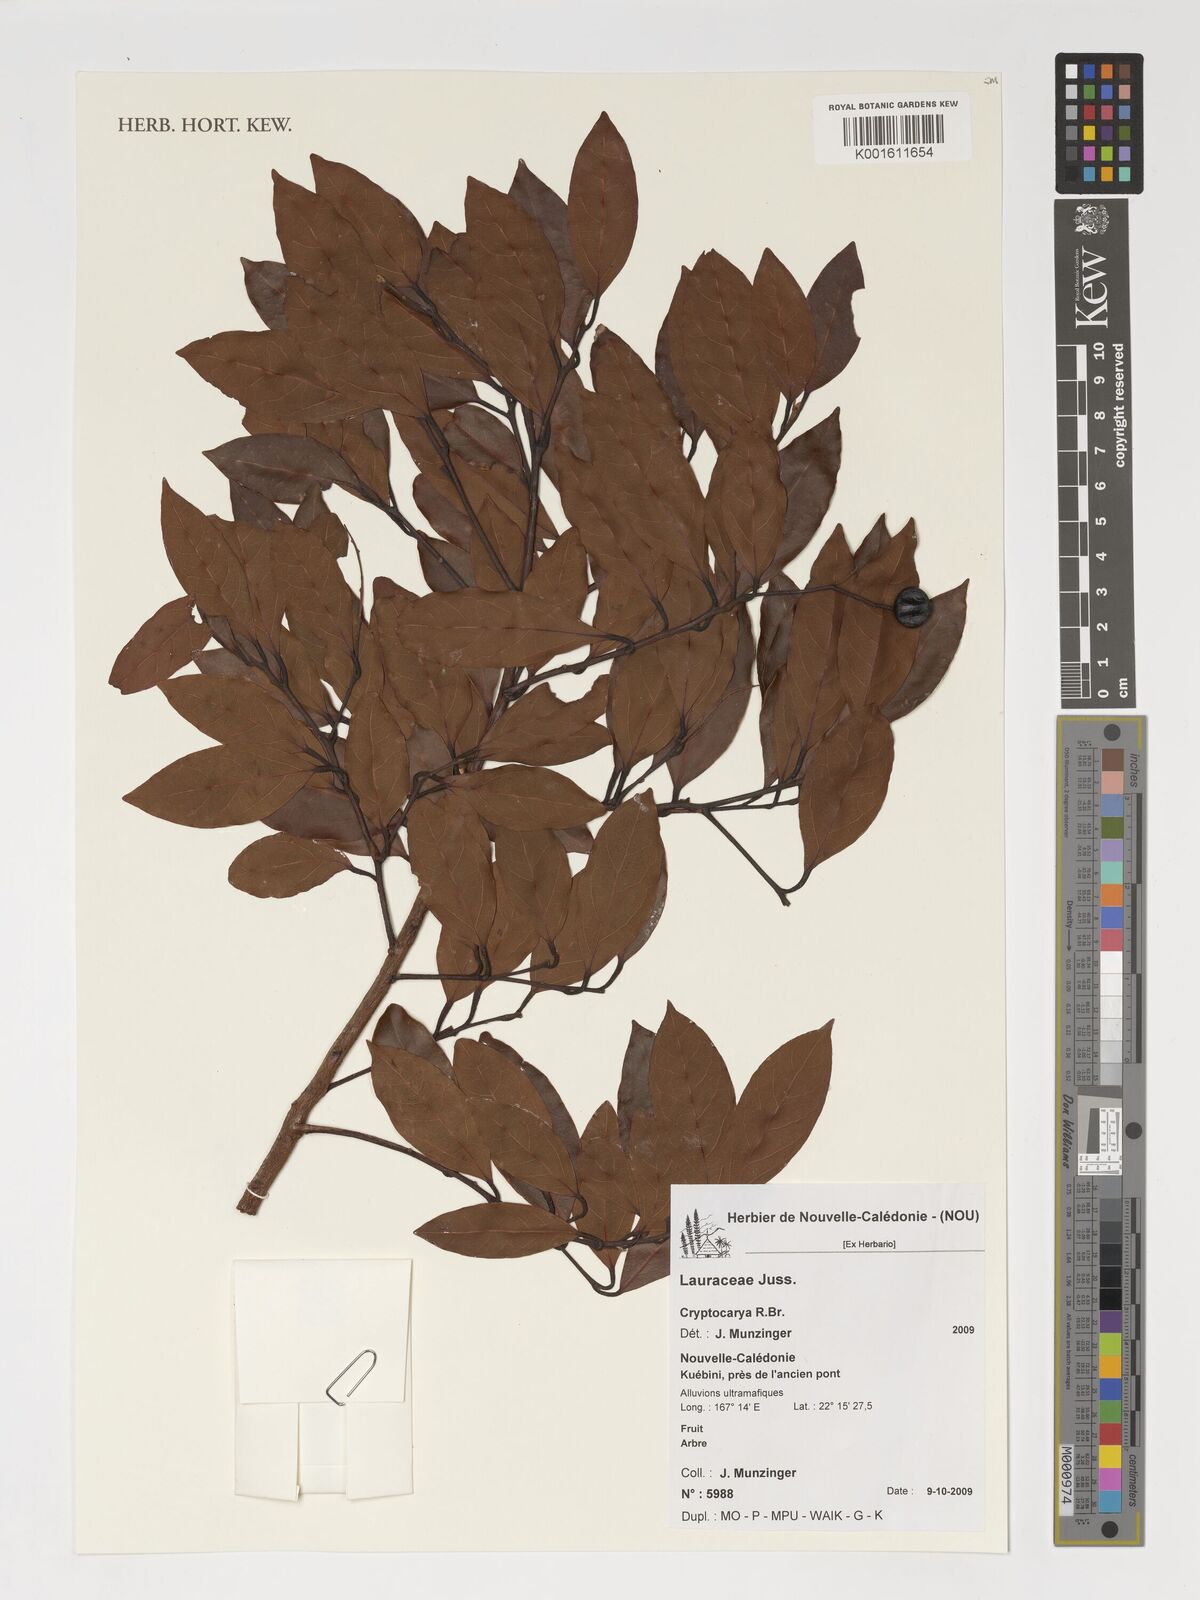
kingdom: Plantae
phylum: Tracheophyta
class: Magnoliopsida
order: Laurales
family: Lauraceae
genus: Cryptocarya
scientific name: Cryptocarya
